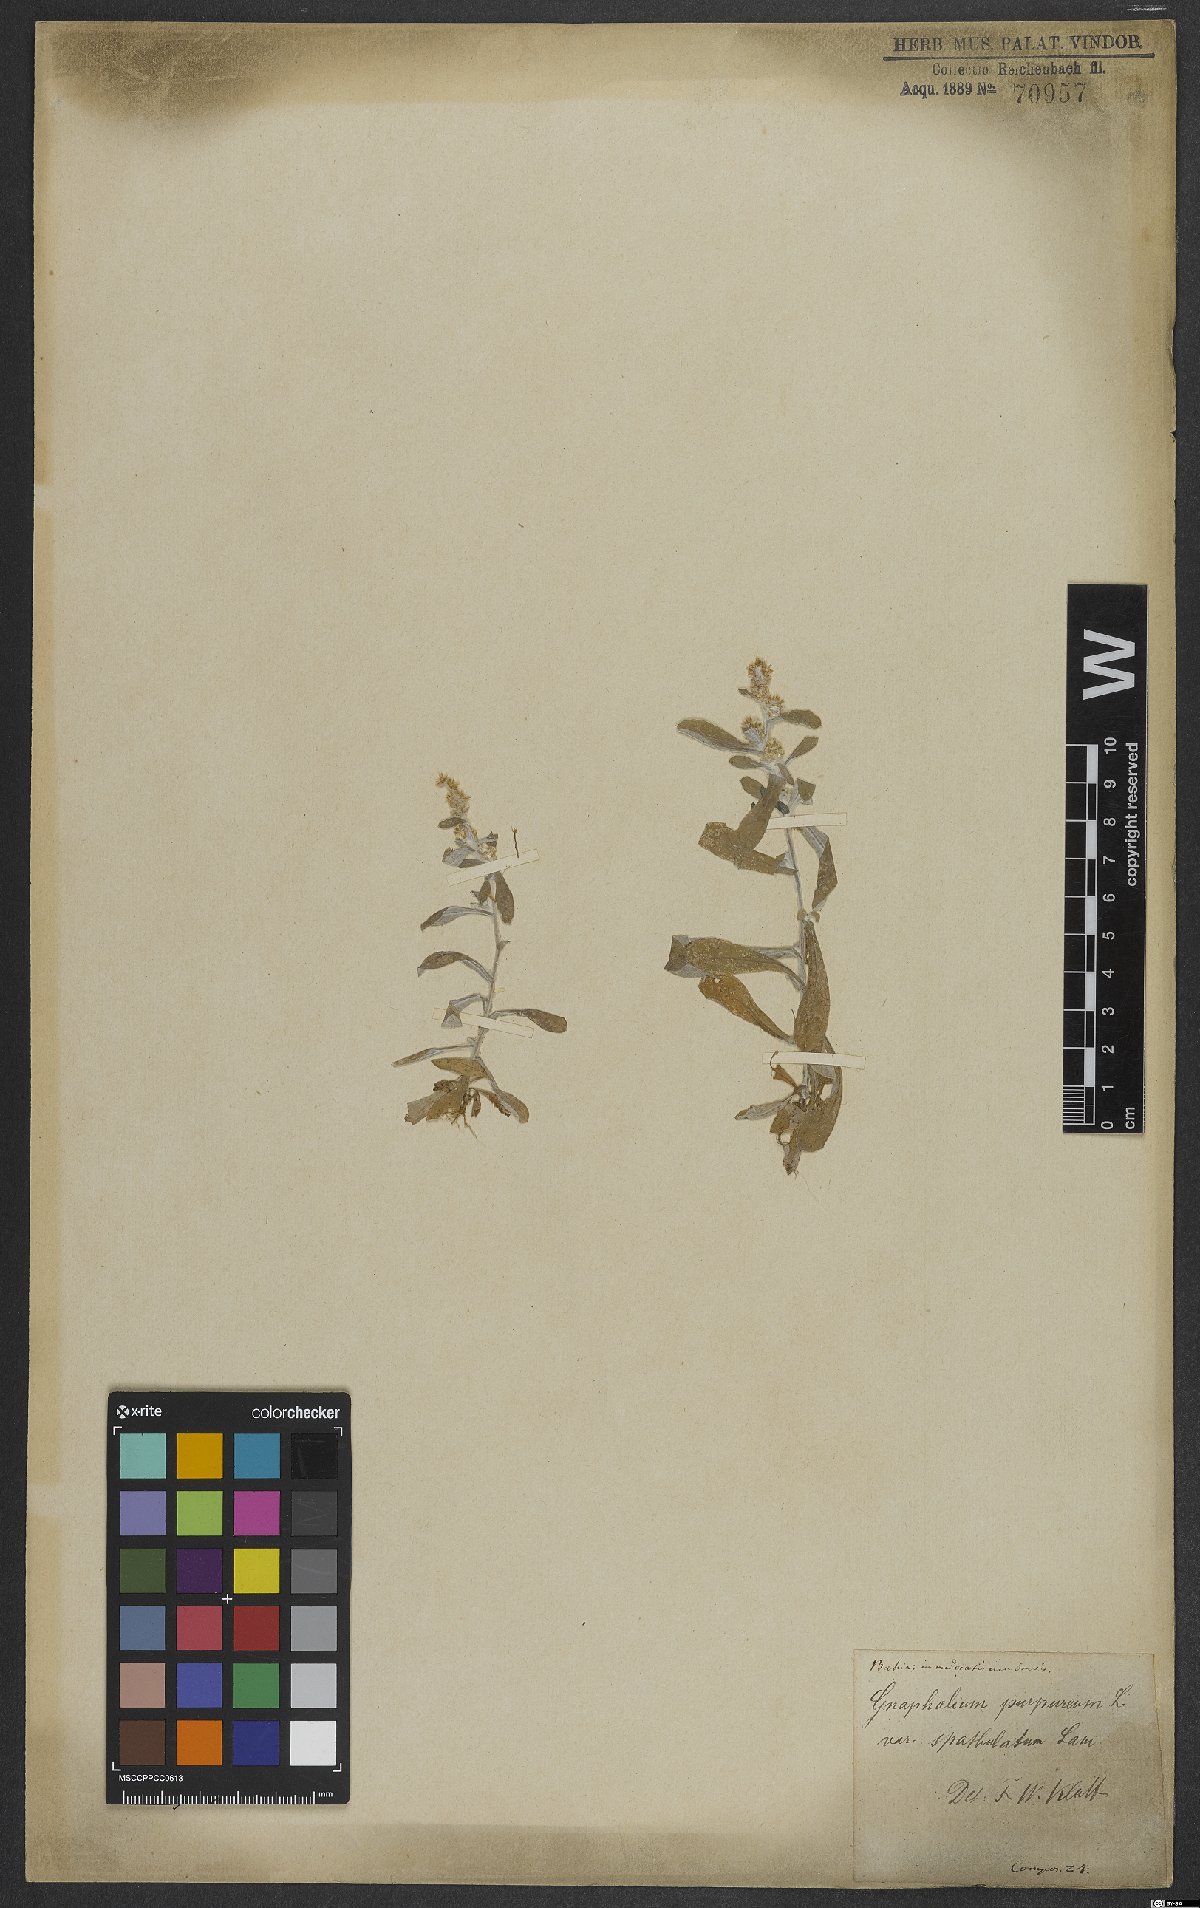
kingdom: Plantae
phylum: Tracheophyta
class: Magnoliopsida
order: Asterales
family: Asteraceae
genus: Gamochaeta
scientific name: Gamochaeta purpurea
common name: Purple cudweed
